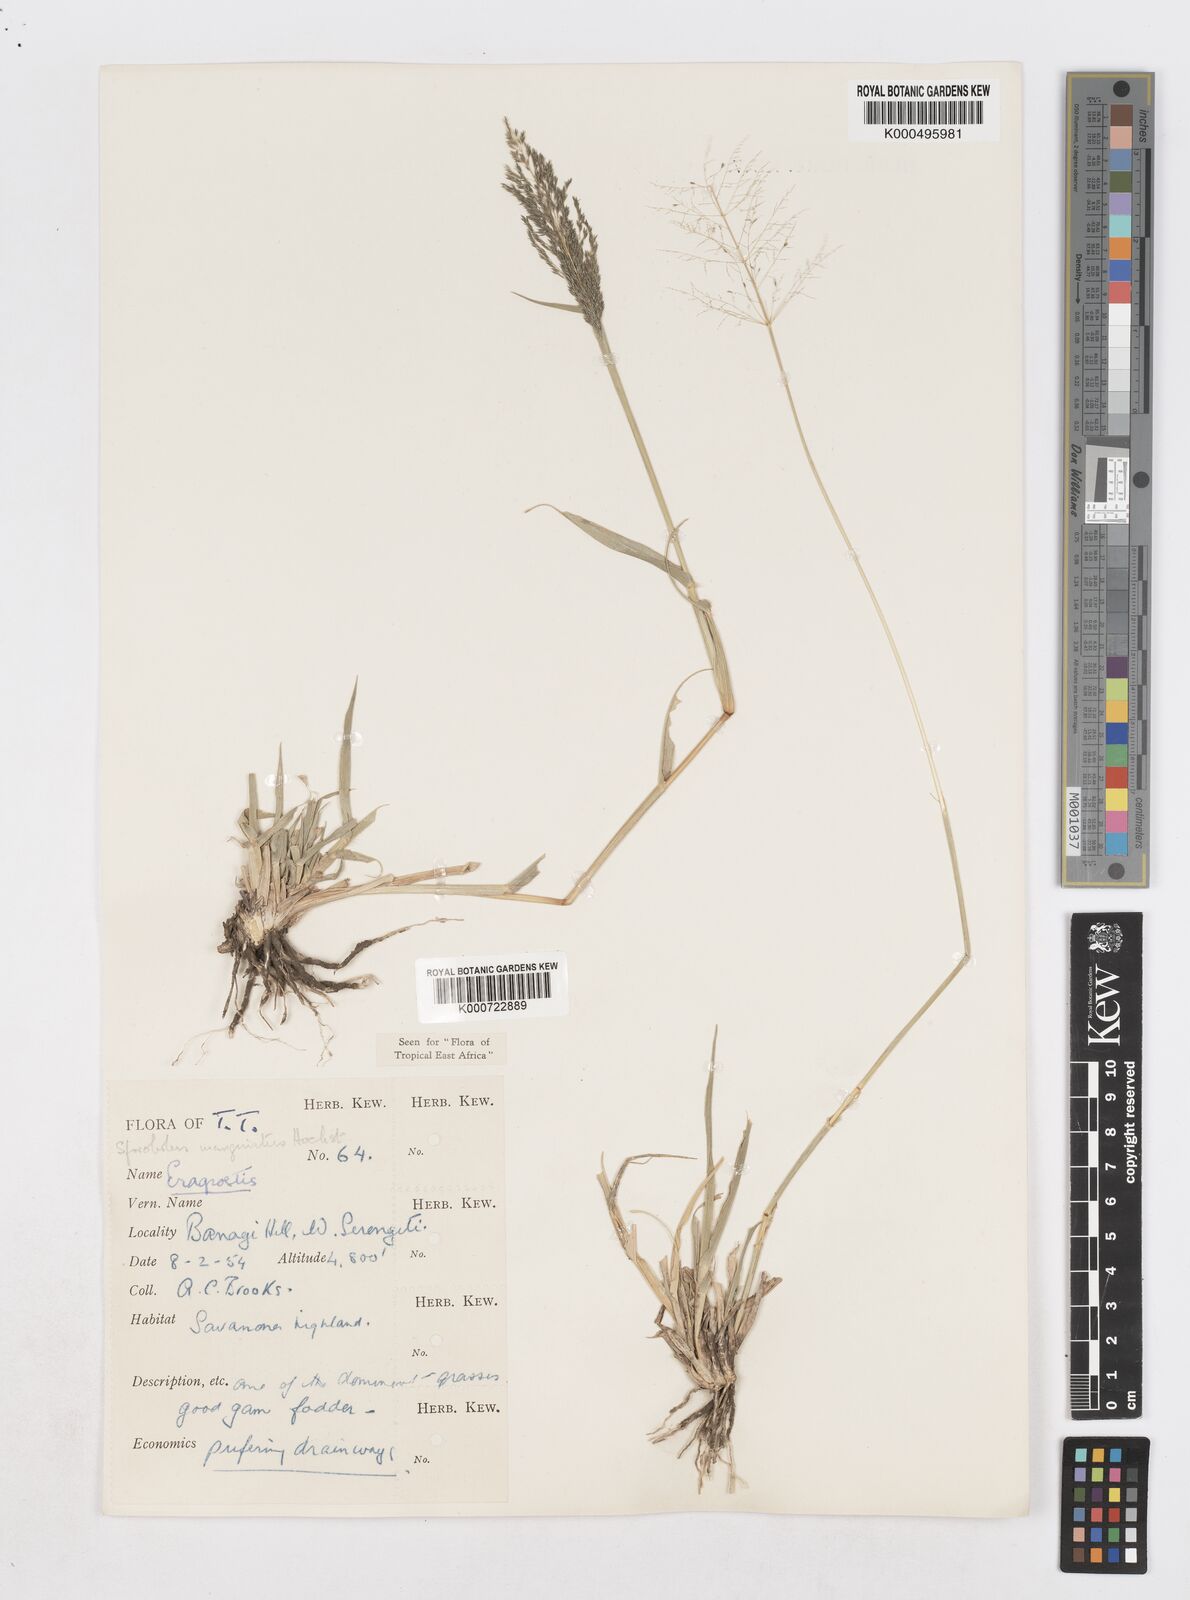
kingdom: Plantae
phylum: Tracheophyta
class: Liliopsida
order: Poales
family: Poaceae
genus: Sporobolus
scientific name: Sporobolus ioclados
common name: Pan dropseed
